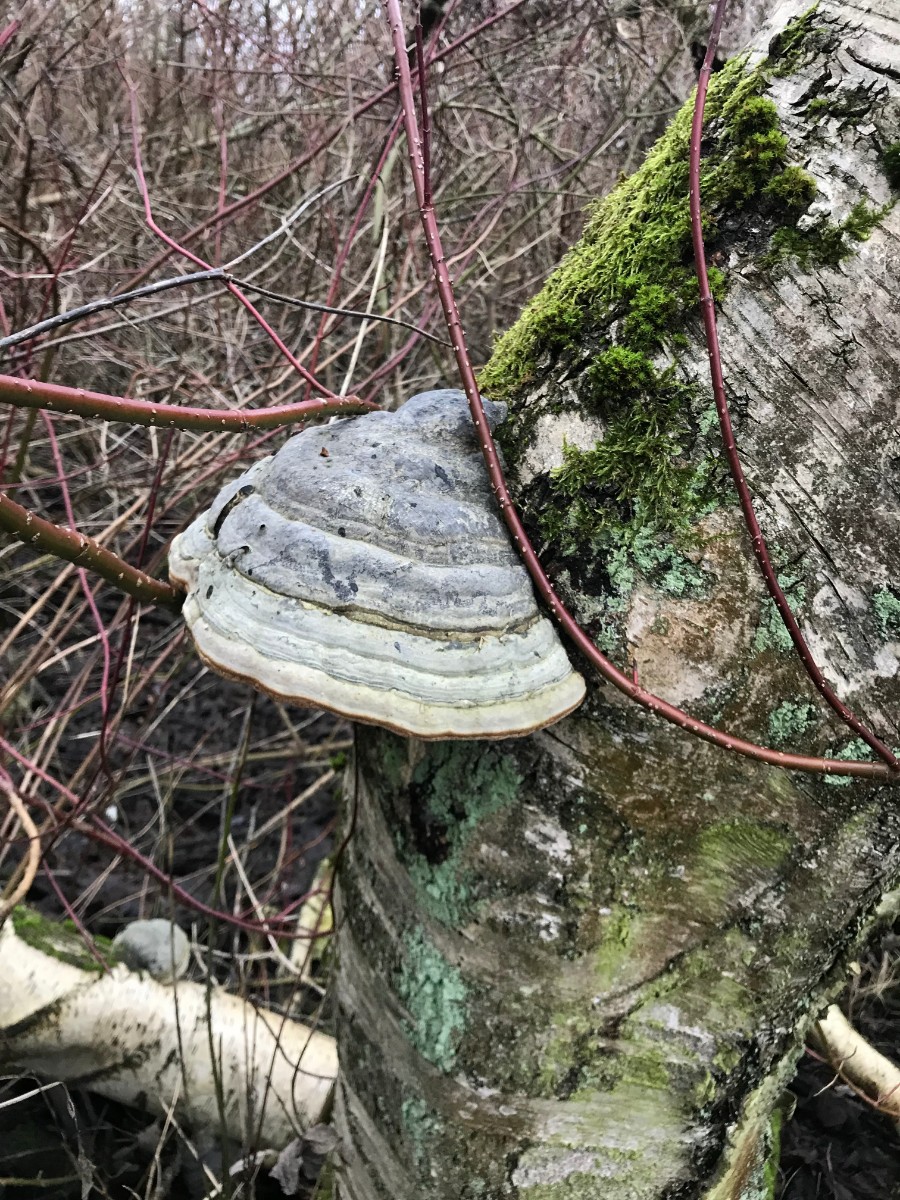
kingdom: Fungi
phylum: Basidiomycota
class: Agaricomycetes
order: Polyporales
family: Polyporaceae
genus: Fomes
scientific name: Fomes fomentarius
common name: tøndersvamp
